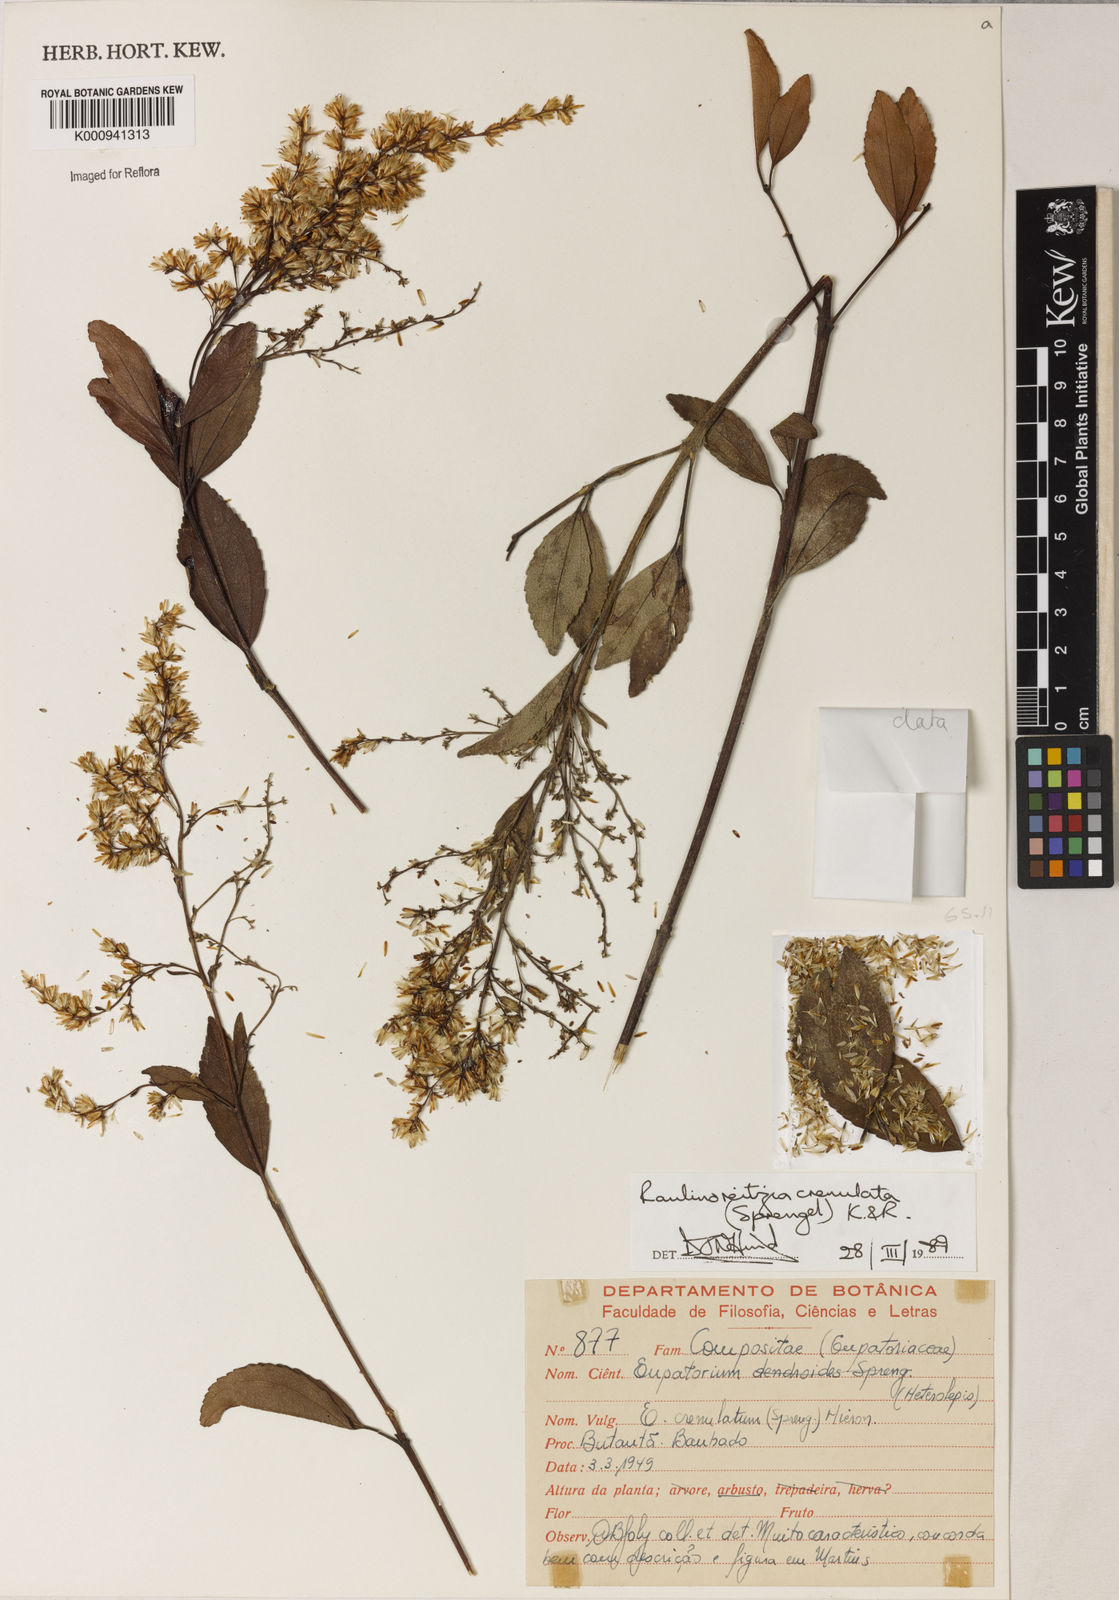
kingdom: Plantae
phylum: Tracheophyta
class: Magnoliopsida
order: Asterales
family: Asteraceae
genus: Raulinoreitzia
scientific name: Raulinoreitzia crenulata
